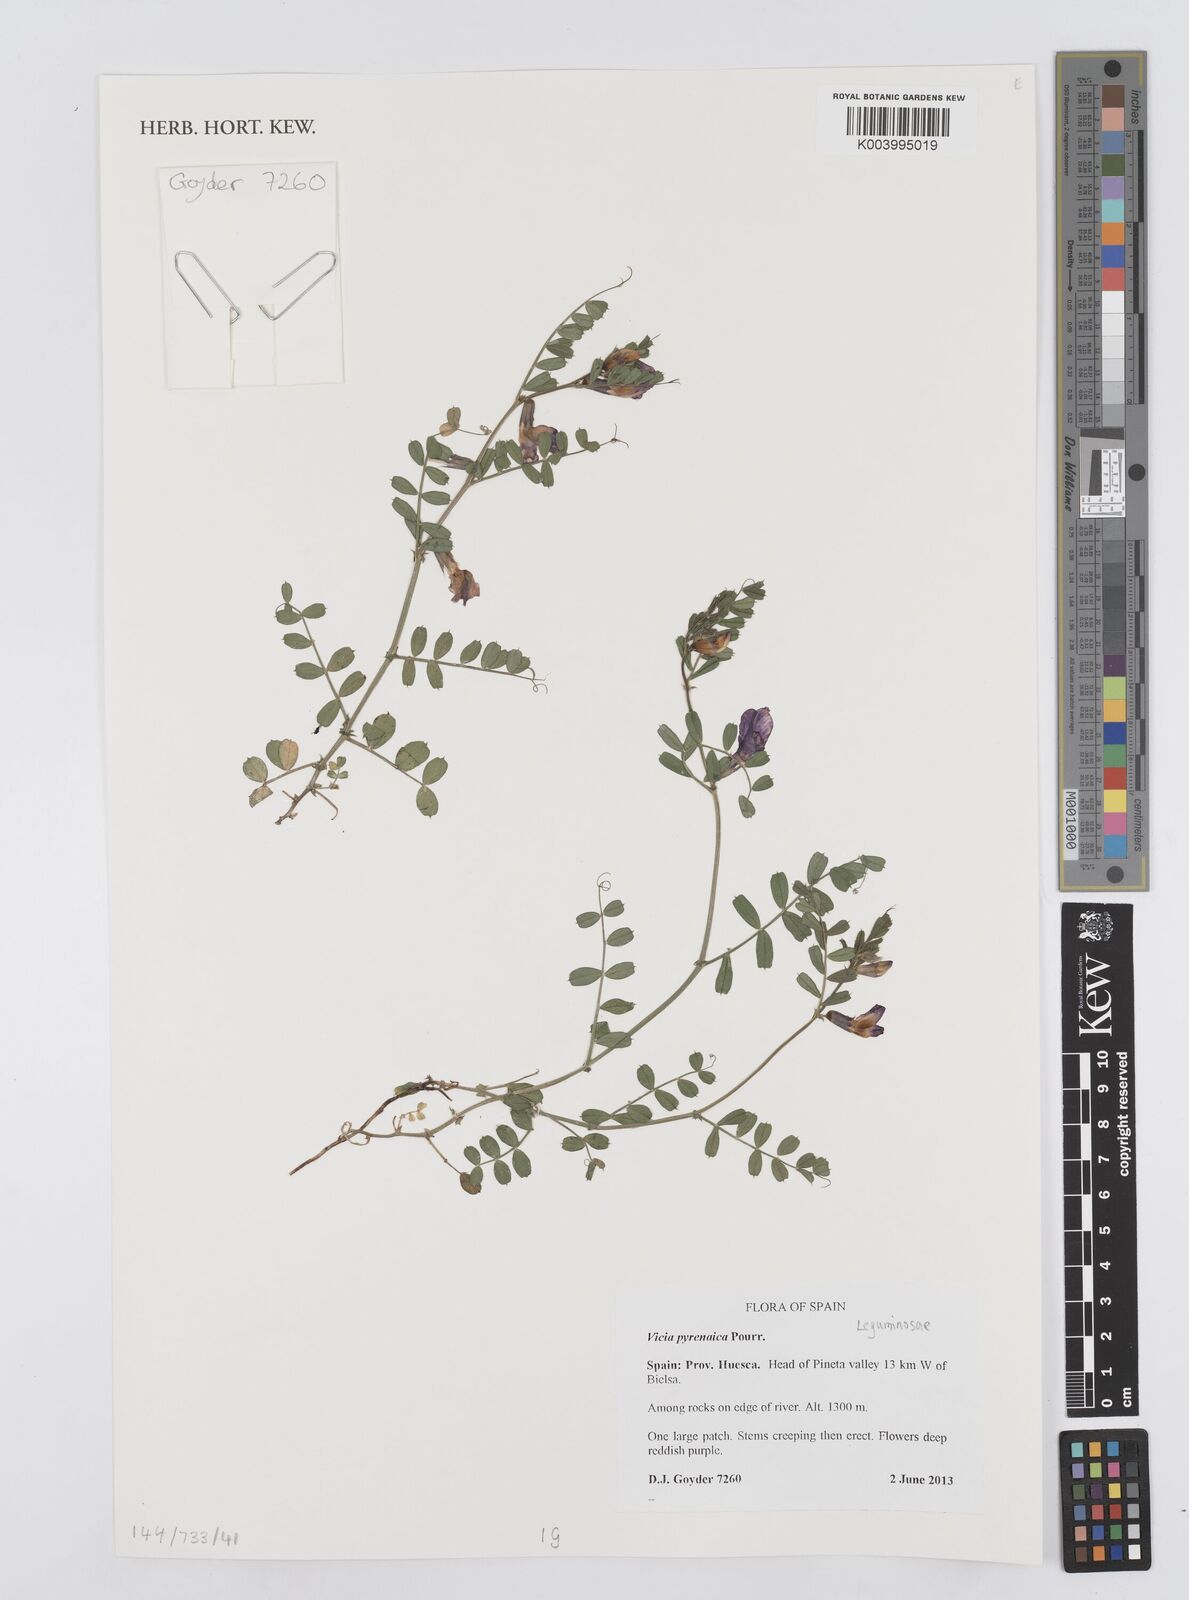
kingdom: Plantae
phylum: Tracheophyta
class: Magnoliopsida
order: Fabales
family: Fabaceae
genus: Vicia
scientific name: Vicia pyrenaica
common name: Pyrenean vetch
